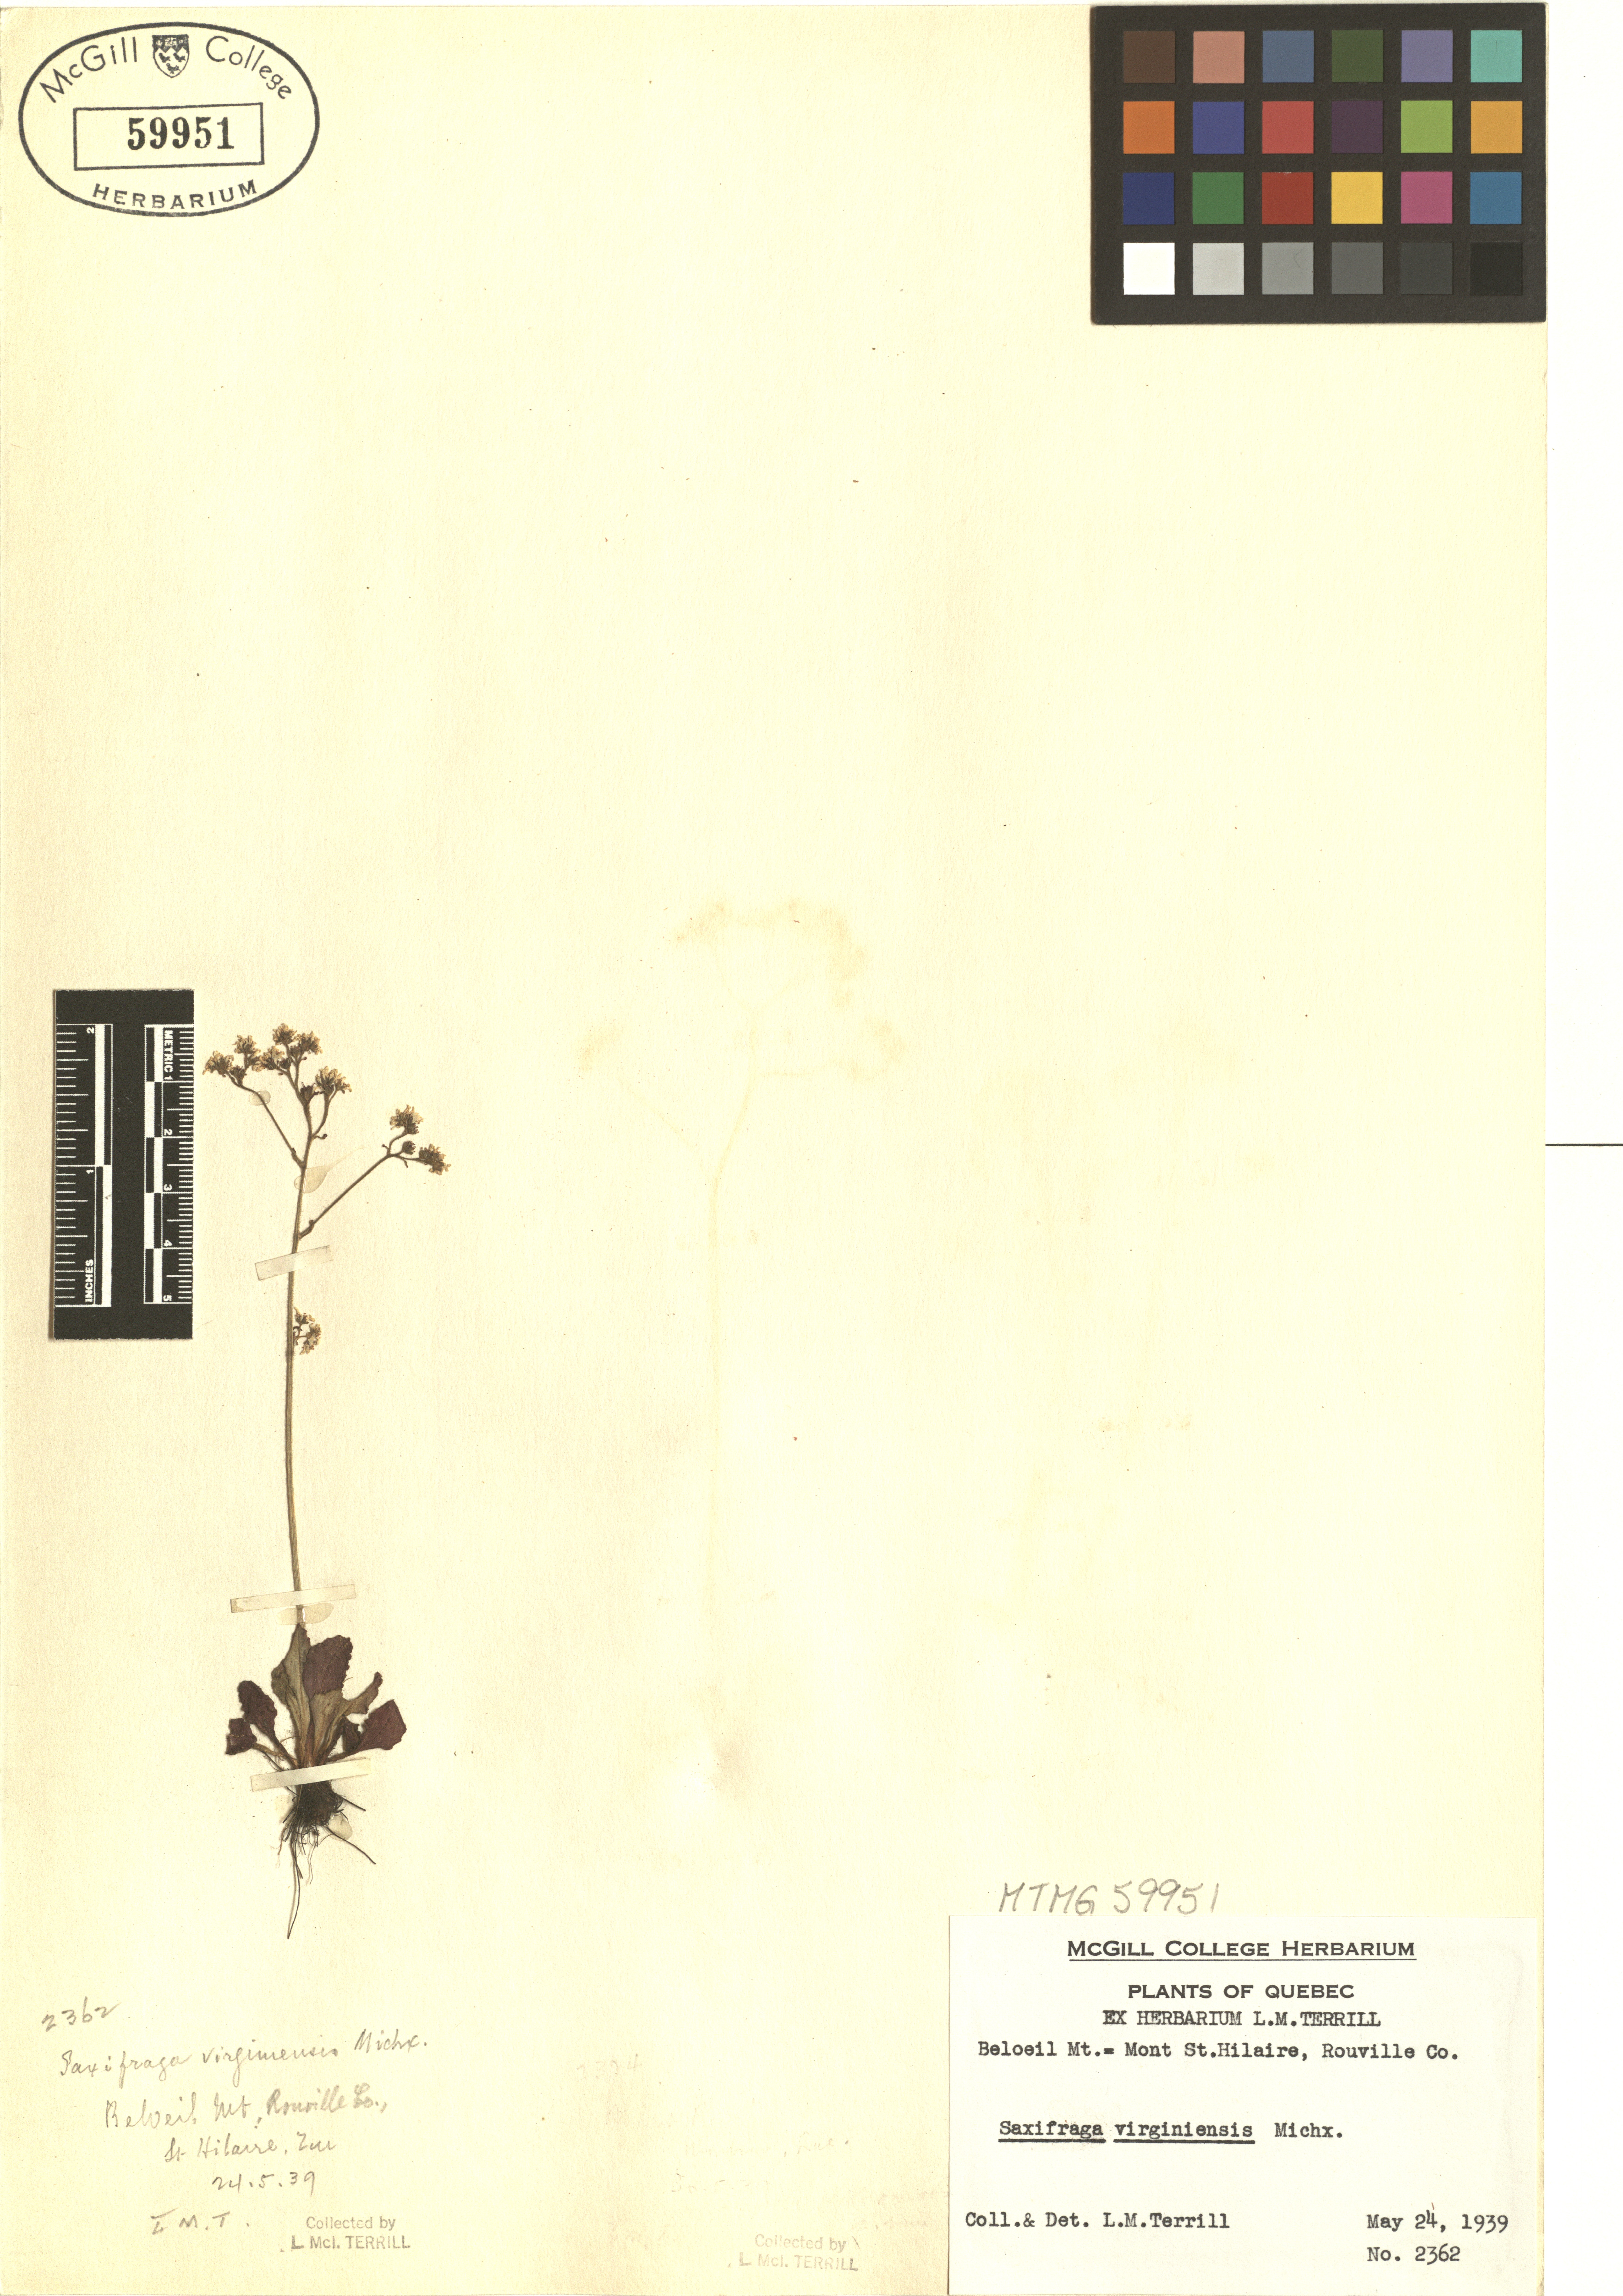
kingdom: Plantae
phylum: Tracheophyta
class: Magnoliopsida
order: Saxifragales
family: Saxifragaceae
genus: Micranthes
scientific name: Micranthes virginiensis
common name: Early saxifrage
